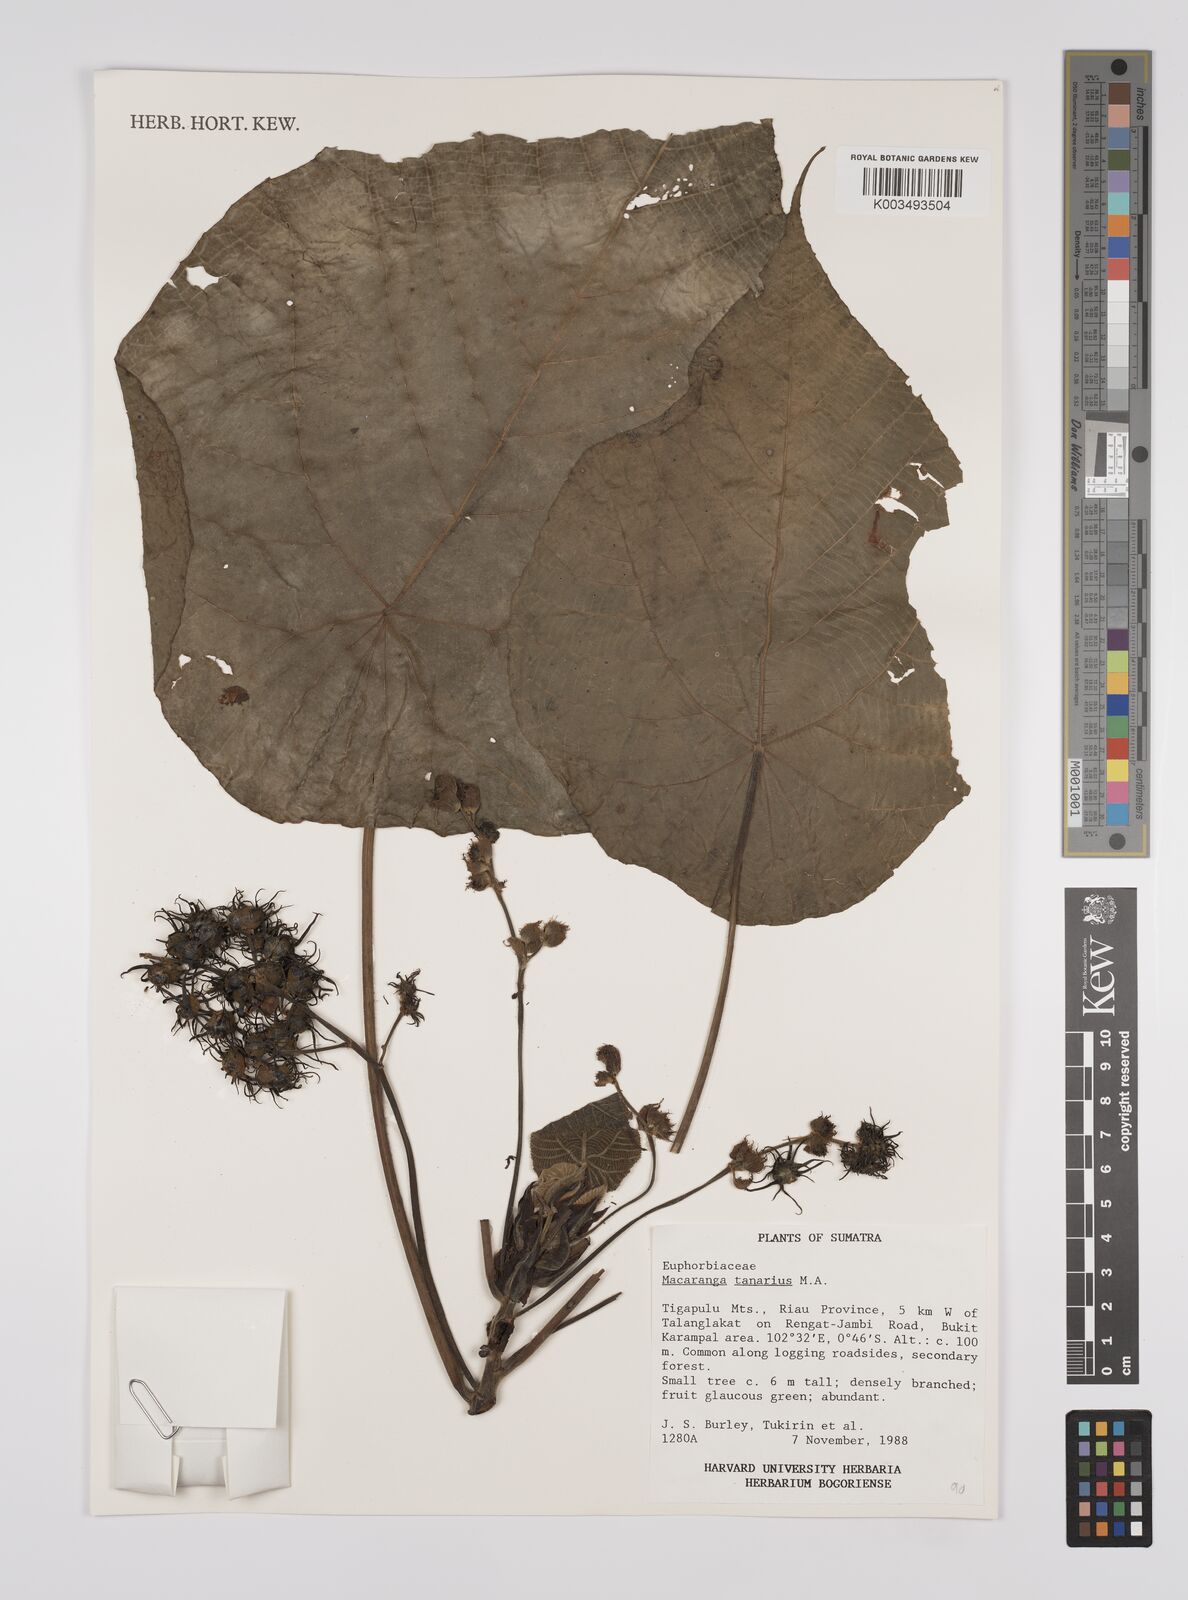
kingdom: Plantae
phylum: Tracheophyta
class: Magnoliopsida
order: Malpighiales
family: Euphorbiaceae
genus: Macaranga
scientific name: Macaranga tanarius
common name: Parasol leaf tree
